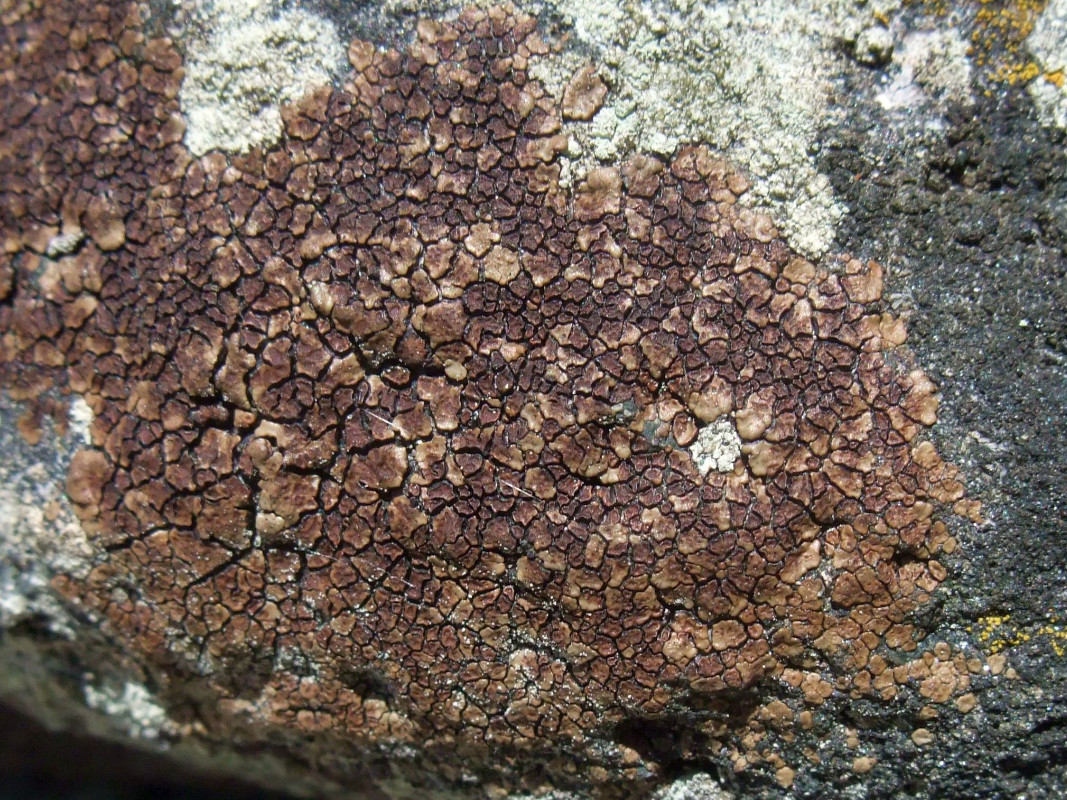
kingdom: Fungi
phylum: Ascomycota
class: Lecanoromycetes
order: Acarosporales
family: Acarosporaceae
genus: Acarospora
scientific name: Acarospora fuscata
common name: brun småsporelav
